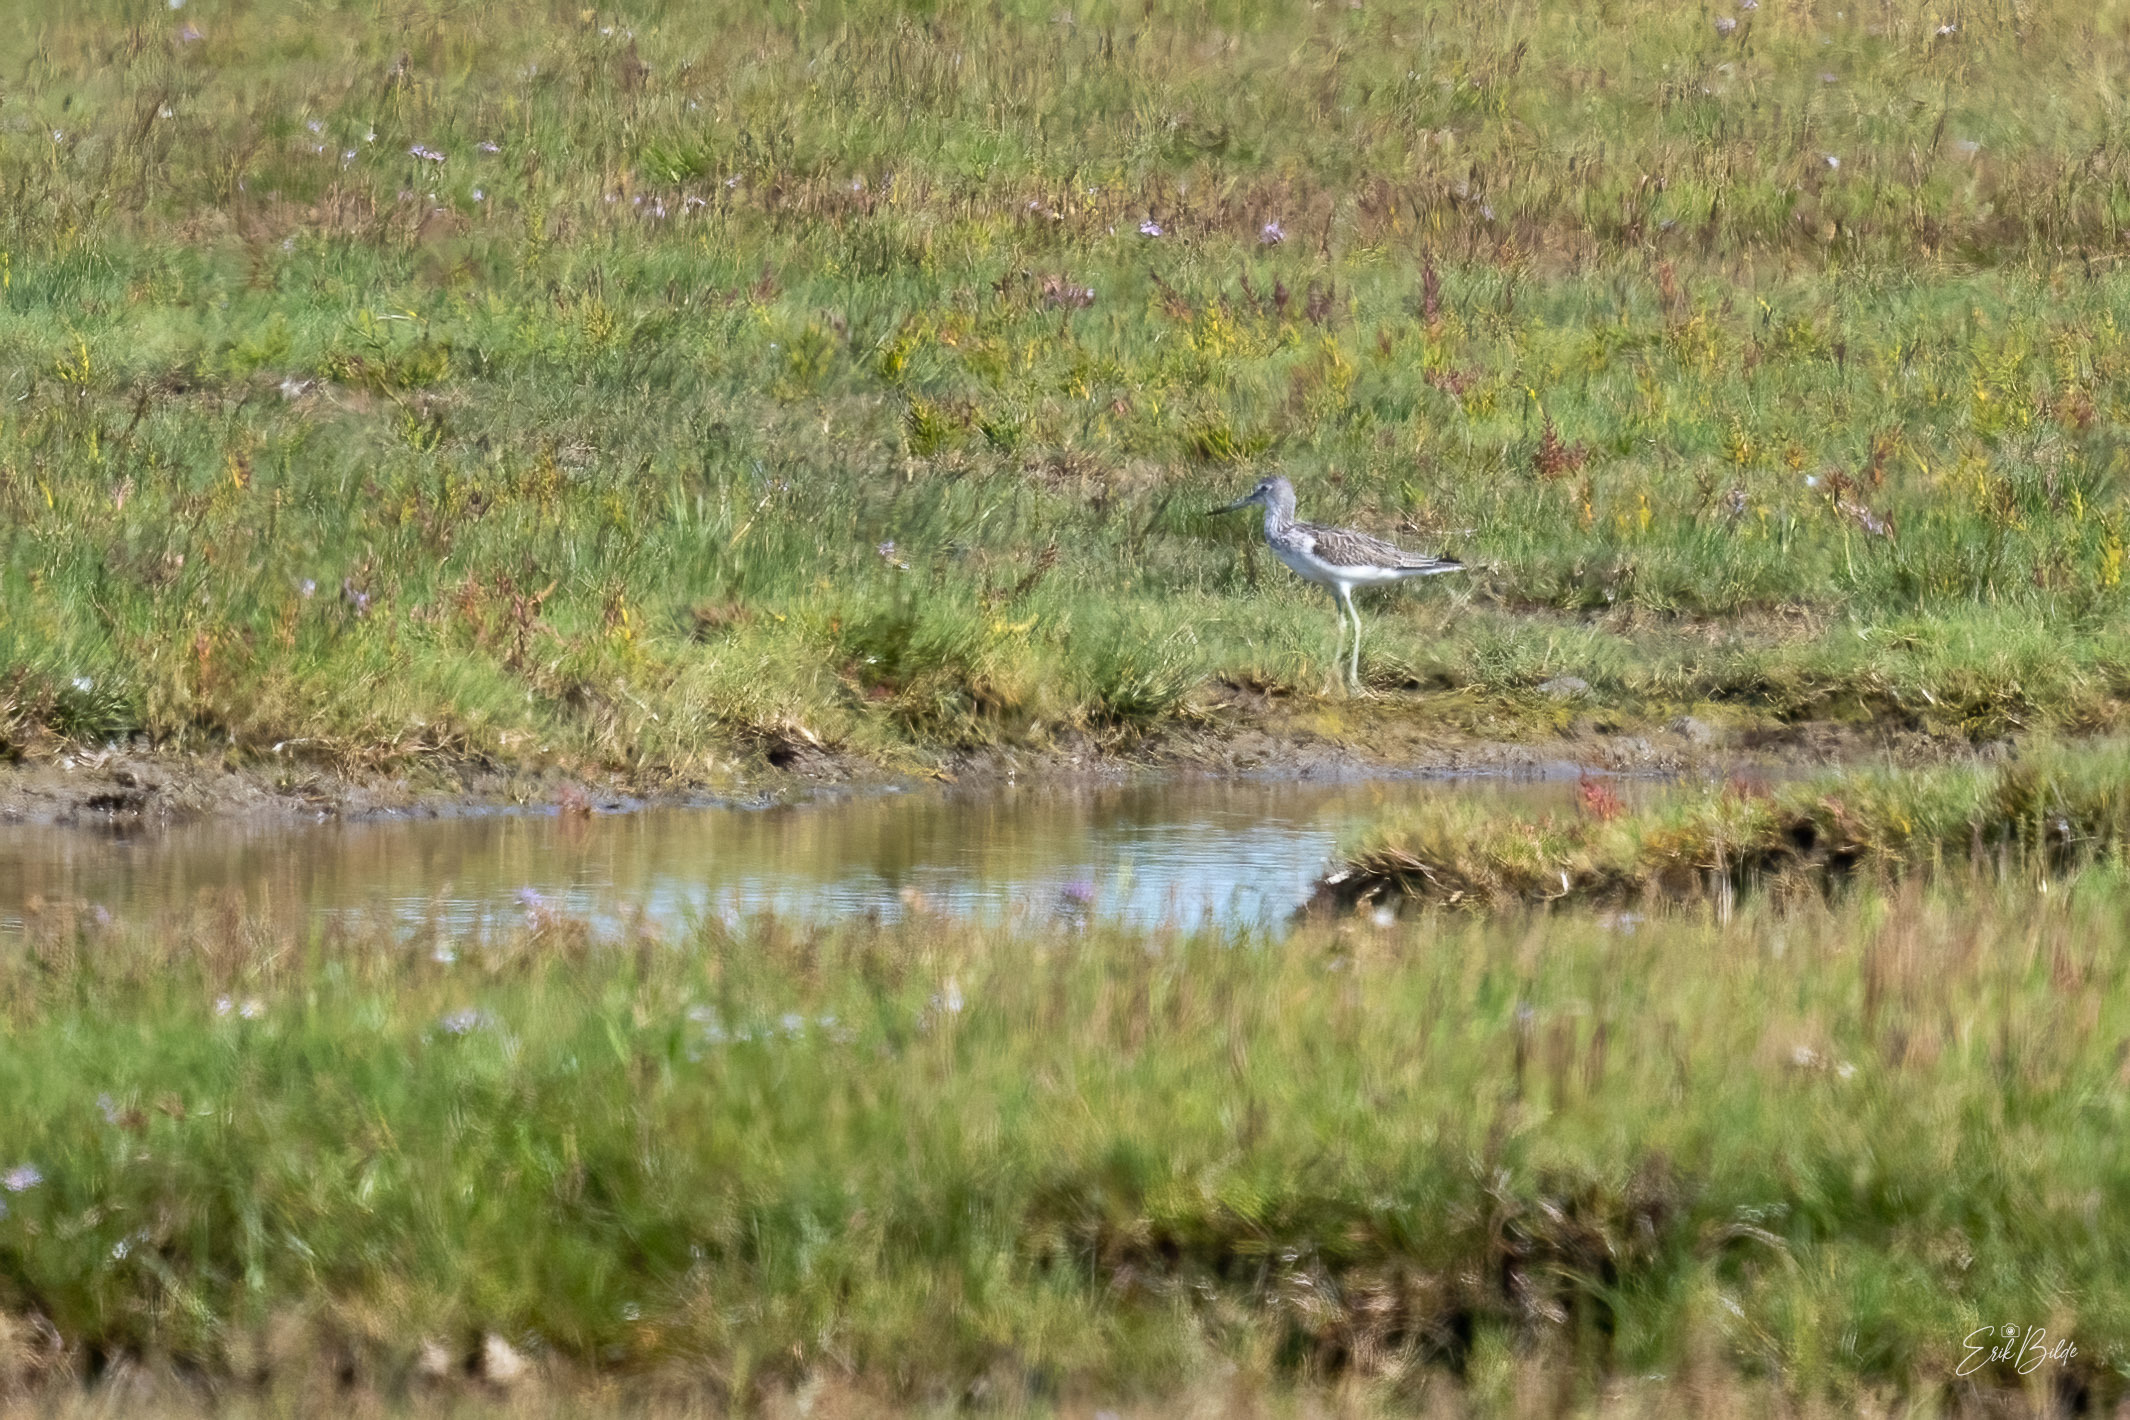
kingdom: Animalia
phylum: Chordata
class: Aves
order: Charadriiformes
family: Scolopacidae
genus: Tringa
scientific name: Tringa nebularia
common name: Hvidklire
